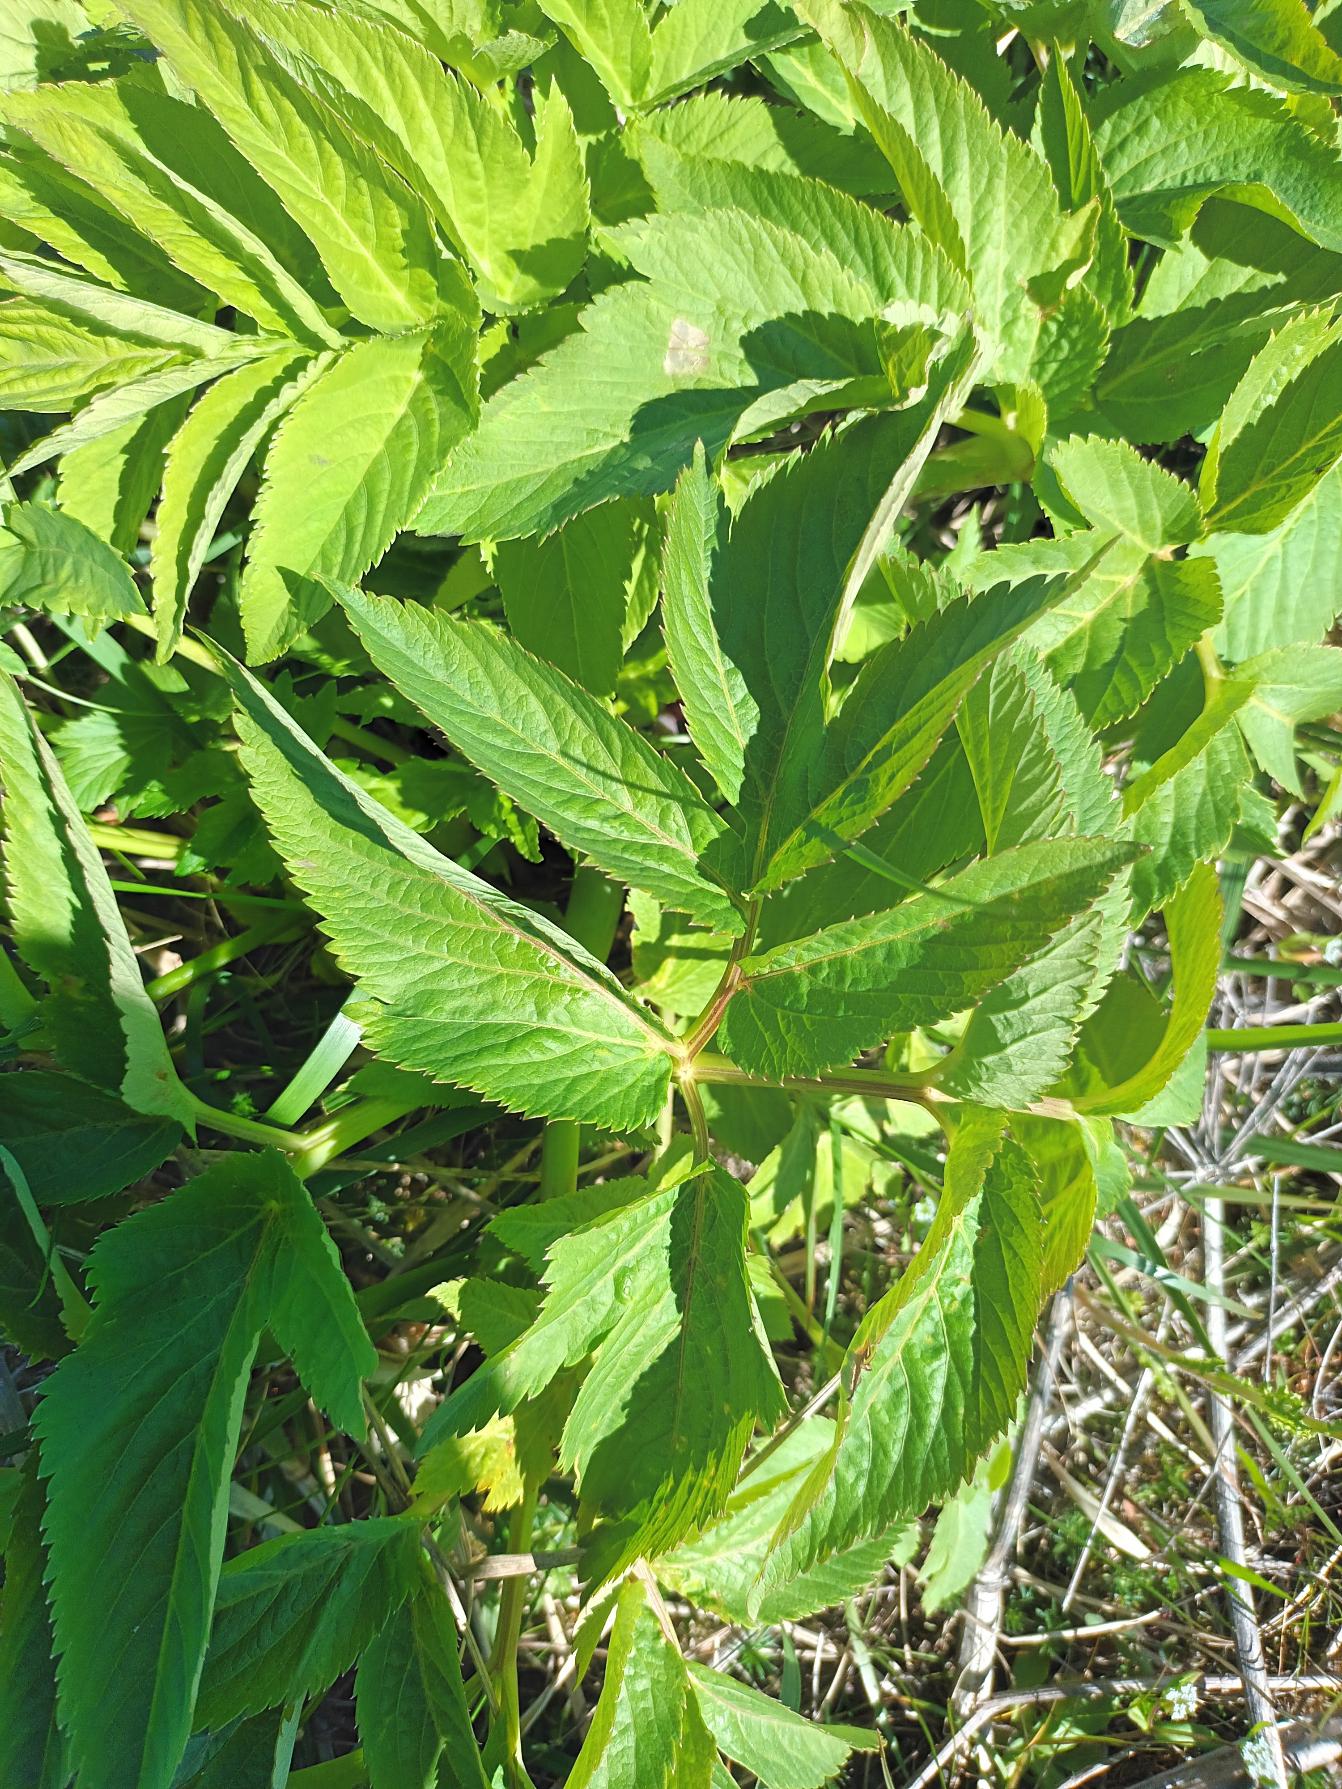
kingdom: Plantae
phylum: Tracheophyta
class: Magnoliopsida
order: Apiales
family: Apiaceae
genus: Angelica
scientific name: Angelica archangelica
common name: Fjeld-kvan
